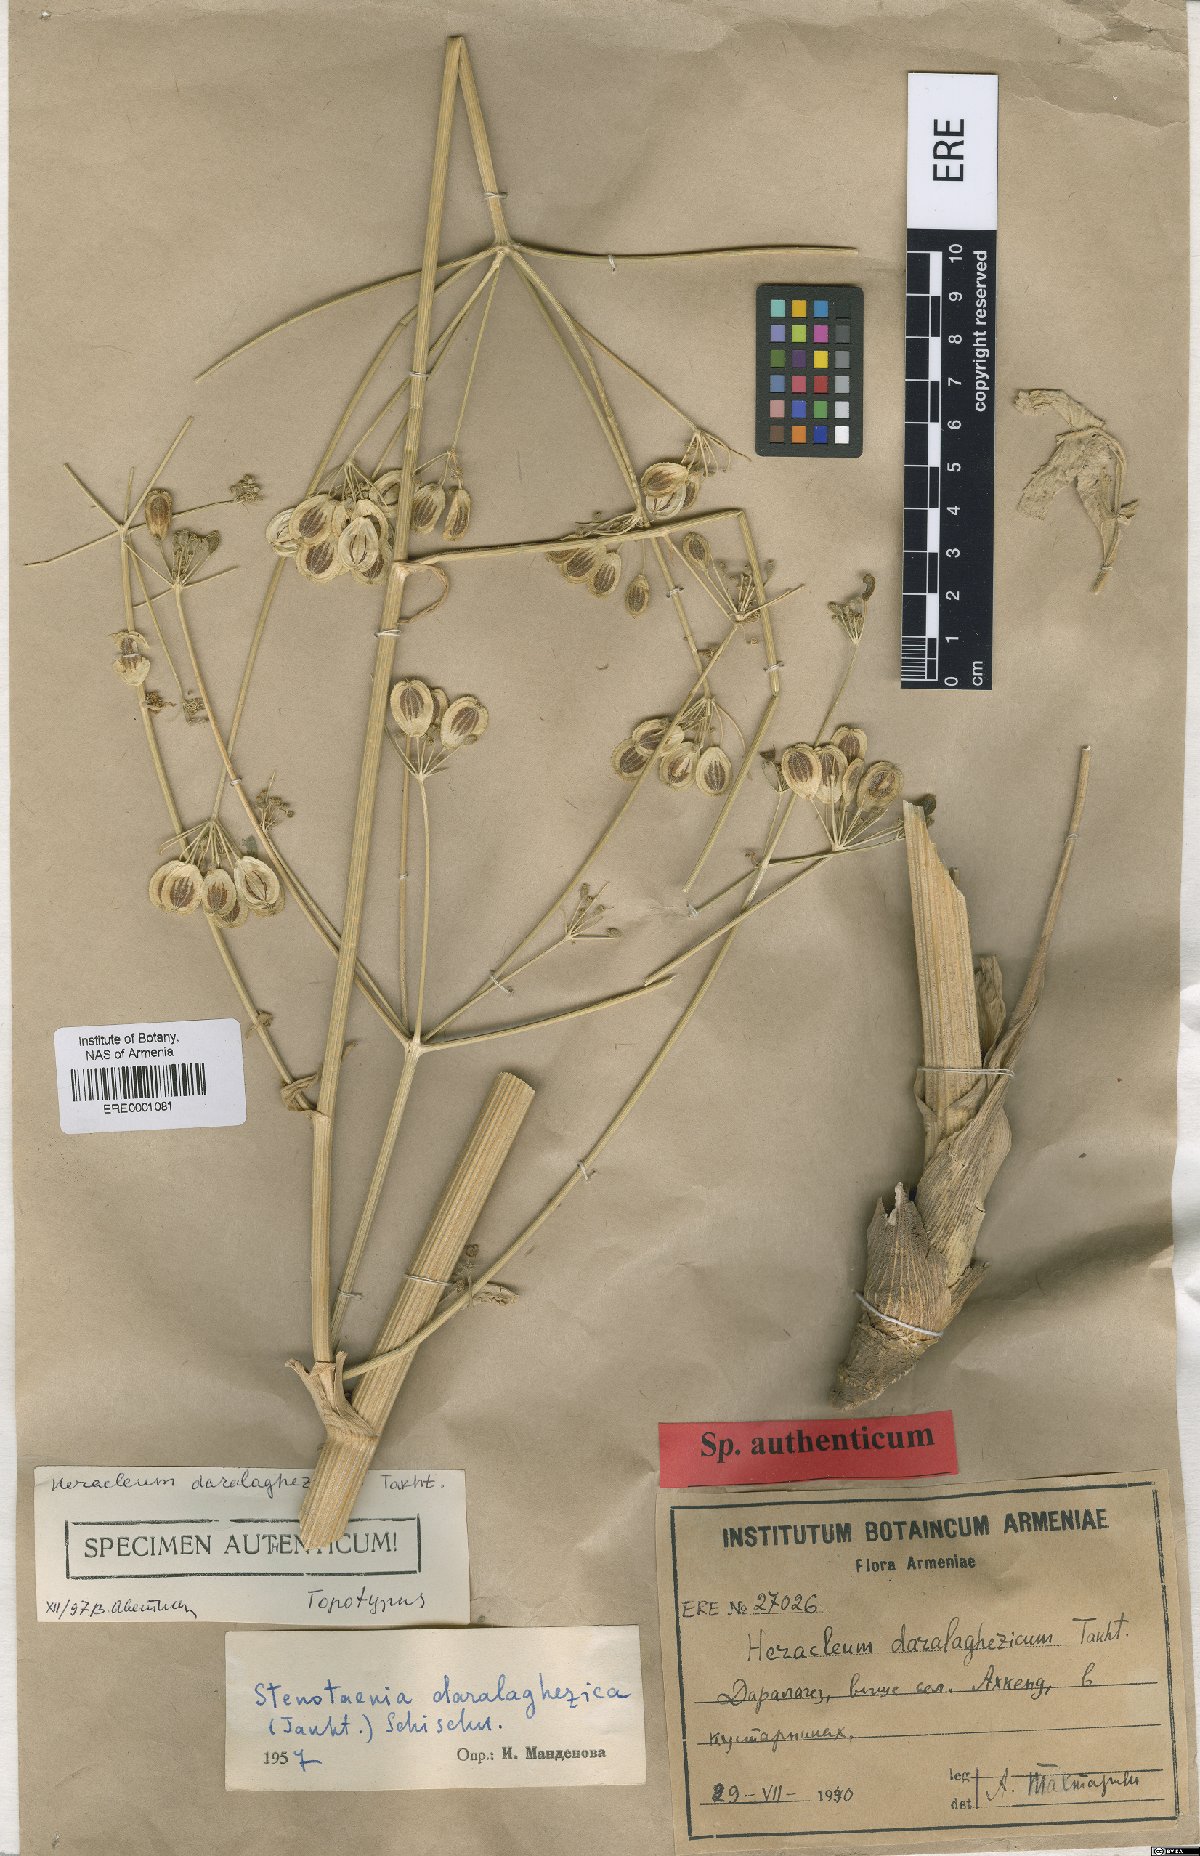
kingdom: Plantae
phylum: Tracheophyta
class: Magnoliopsida
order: Apiales
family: Apiaceae
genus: Stenotaenia
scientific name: Stenotaenia daralaghezica
